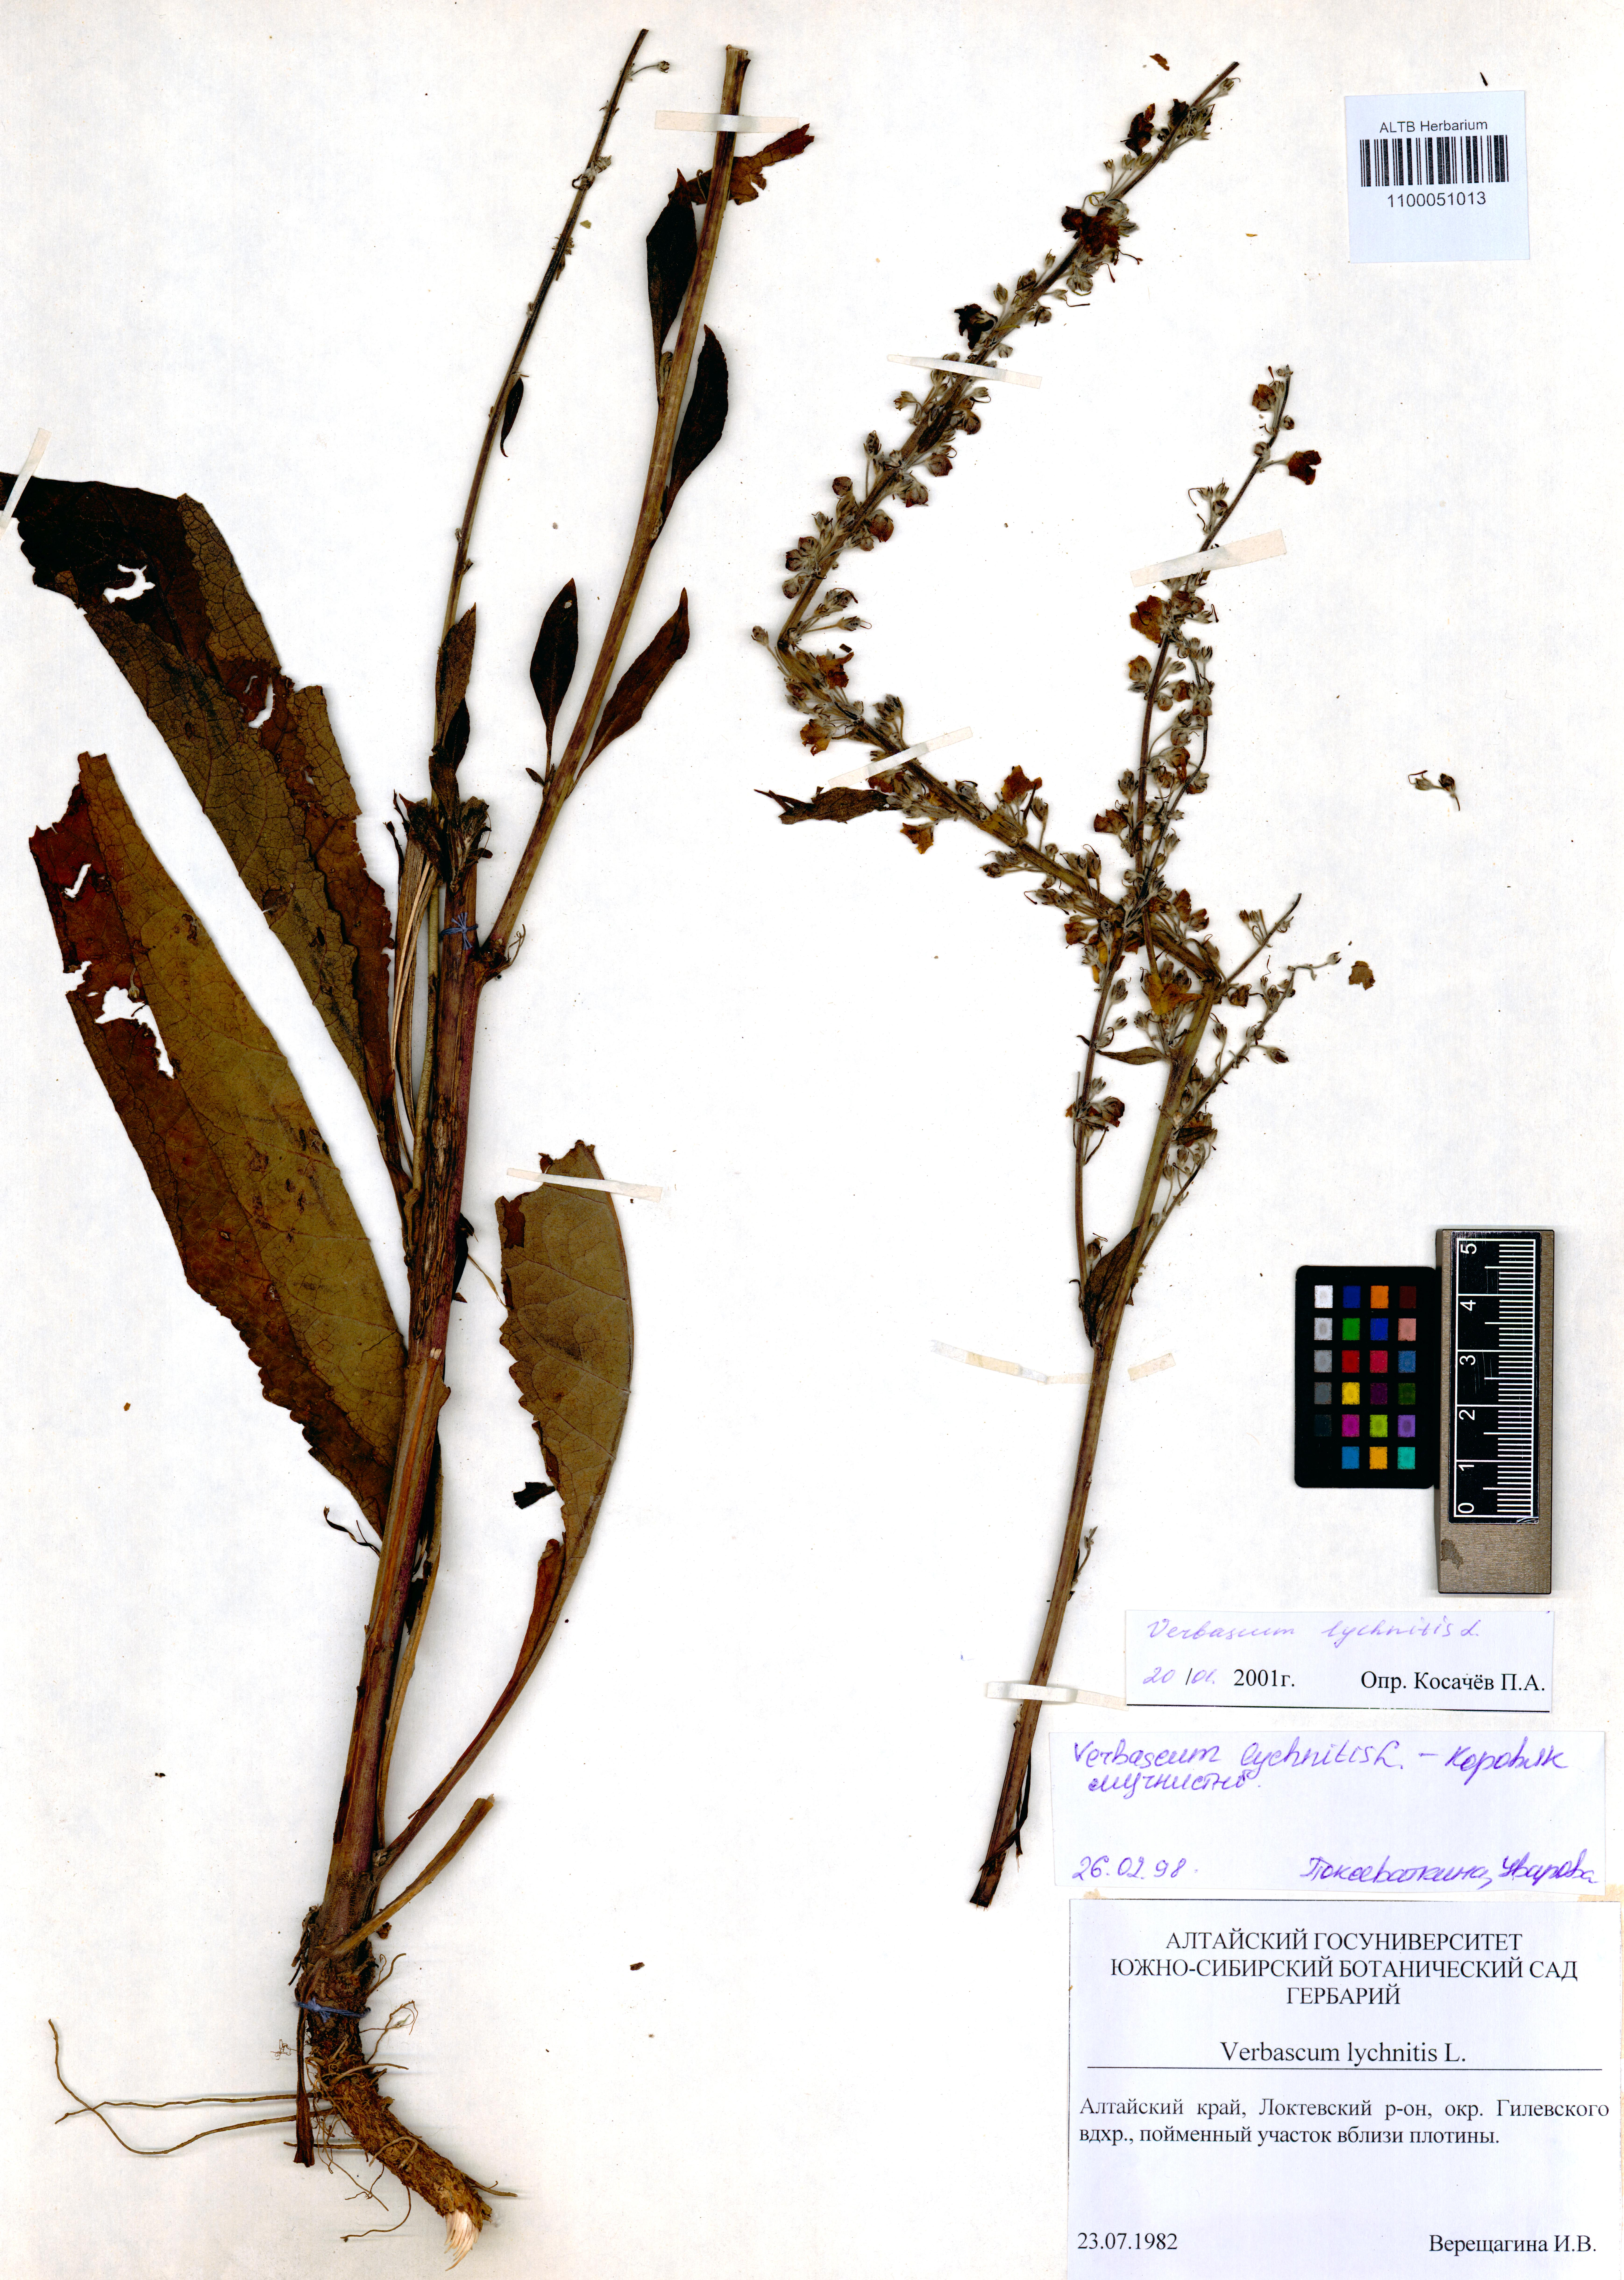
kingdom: Plantae
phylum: Tracheophyta
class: Magnoliopsida
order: Lamiales
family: Scrophulariaceae
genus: Verbascum
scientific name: Verbascum lychnitis
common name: White mullein
